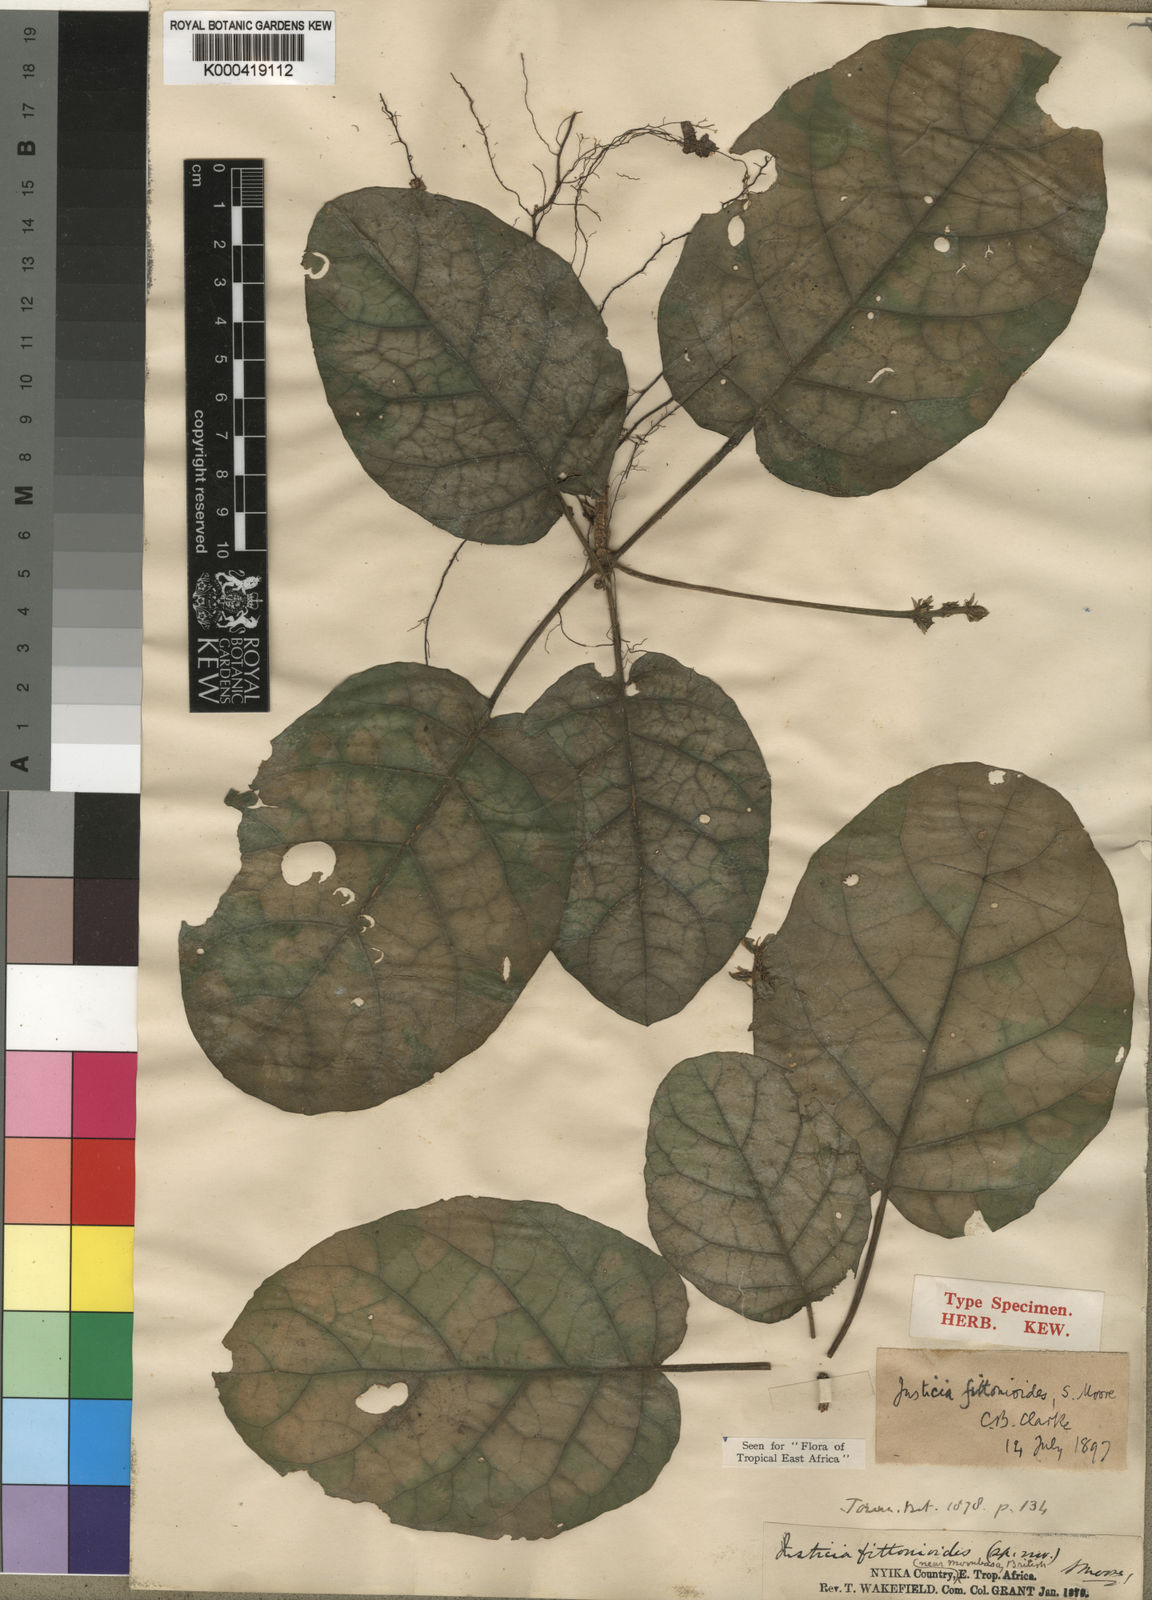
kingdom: Plantae
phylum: Tracheophyta
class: Magnoliopsida
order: Lamiales
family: Acanthaceae
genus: Nicoteba
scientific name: Nicoteba fittonioides
